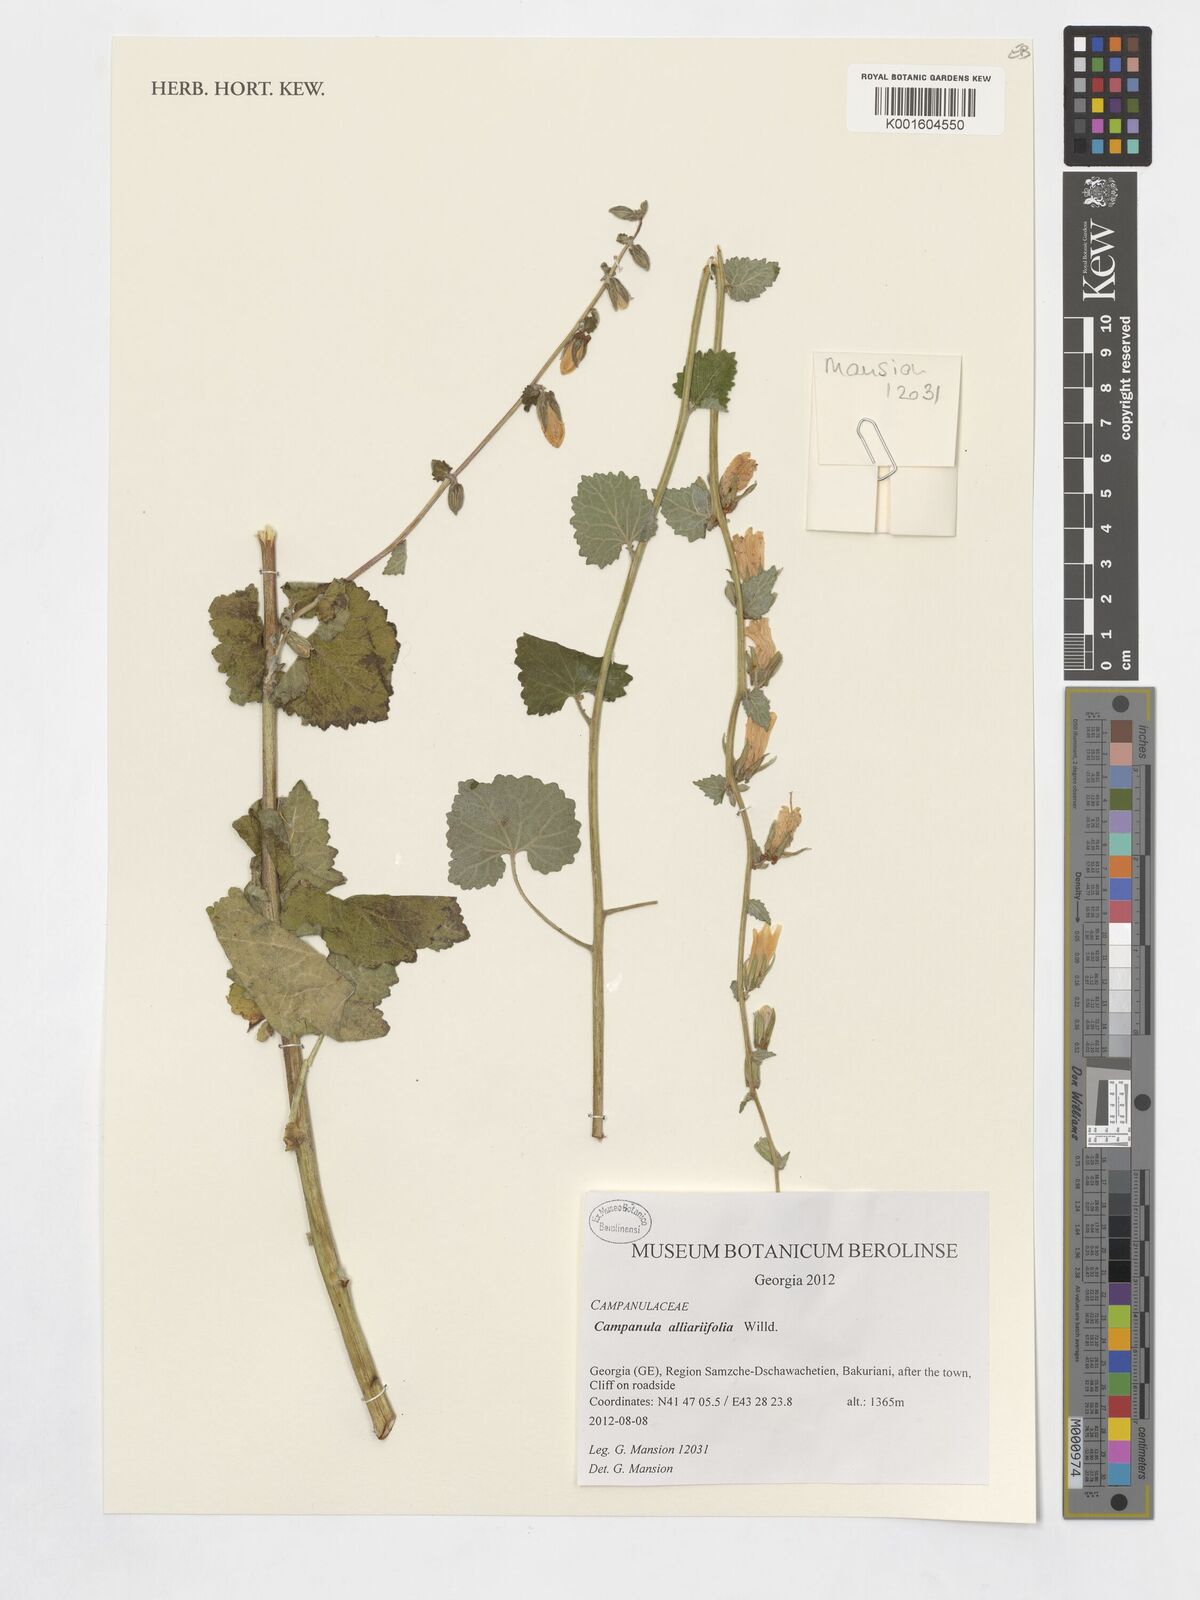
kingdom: Plantae
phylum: Tracheophyta
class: Magnoliopsida
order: Asterales
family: Campanulaceae
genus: Campanula
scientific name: Campanula alliariifolia
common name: Cornish bellflower
